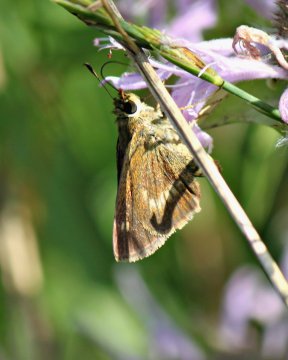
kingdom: Animalia
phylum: Arthropoda
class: Insecta
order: Lepidoptera
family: Hesperiidae
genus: Polites
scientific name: Polites
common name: Crossline Skipper
